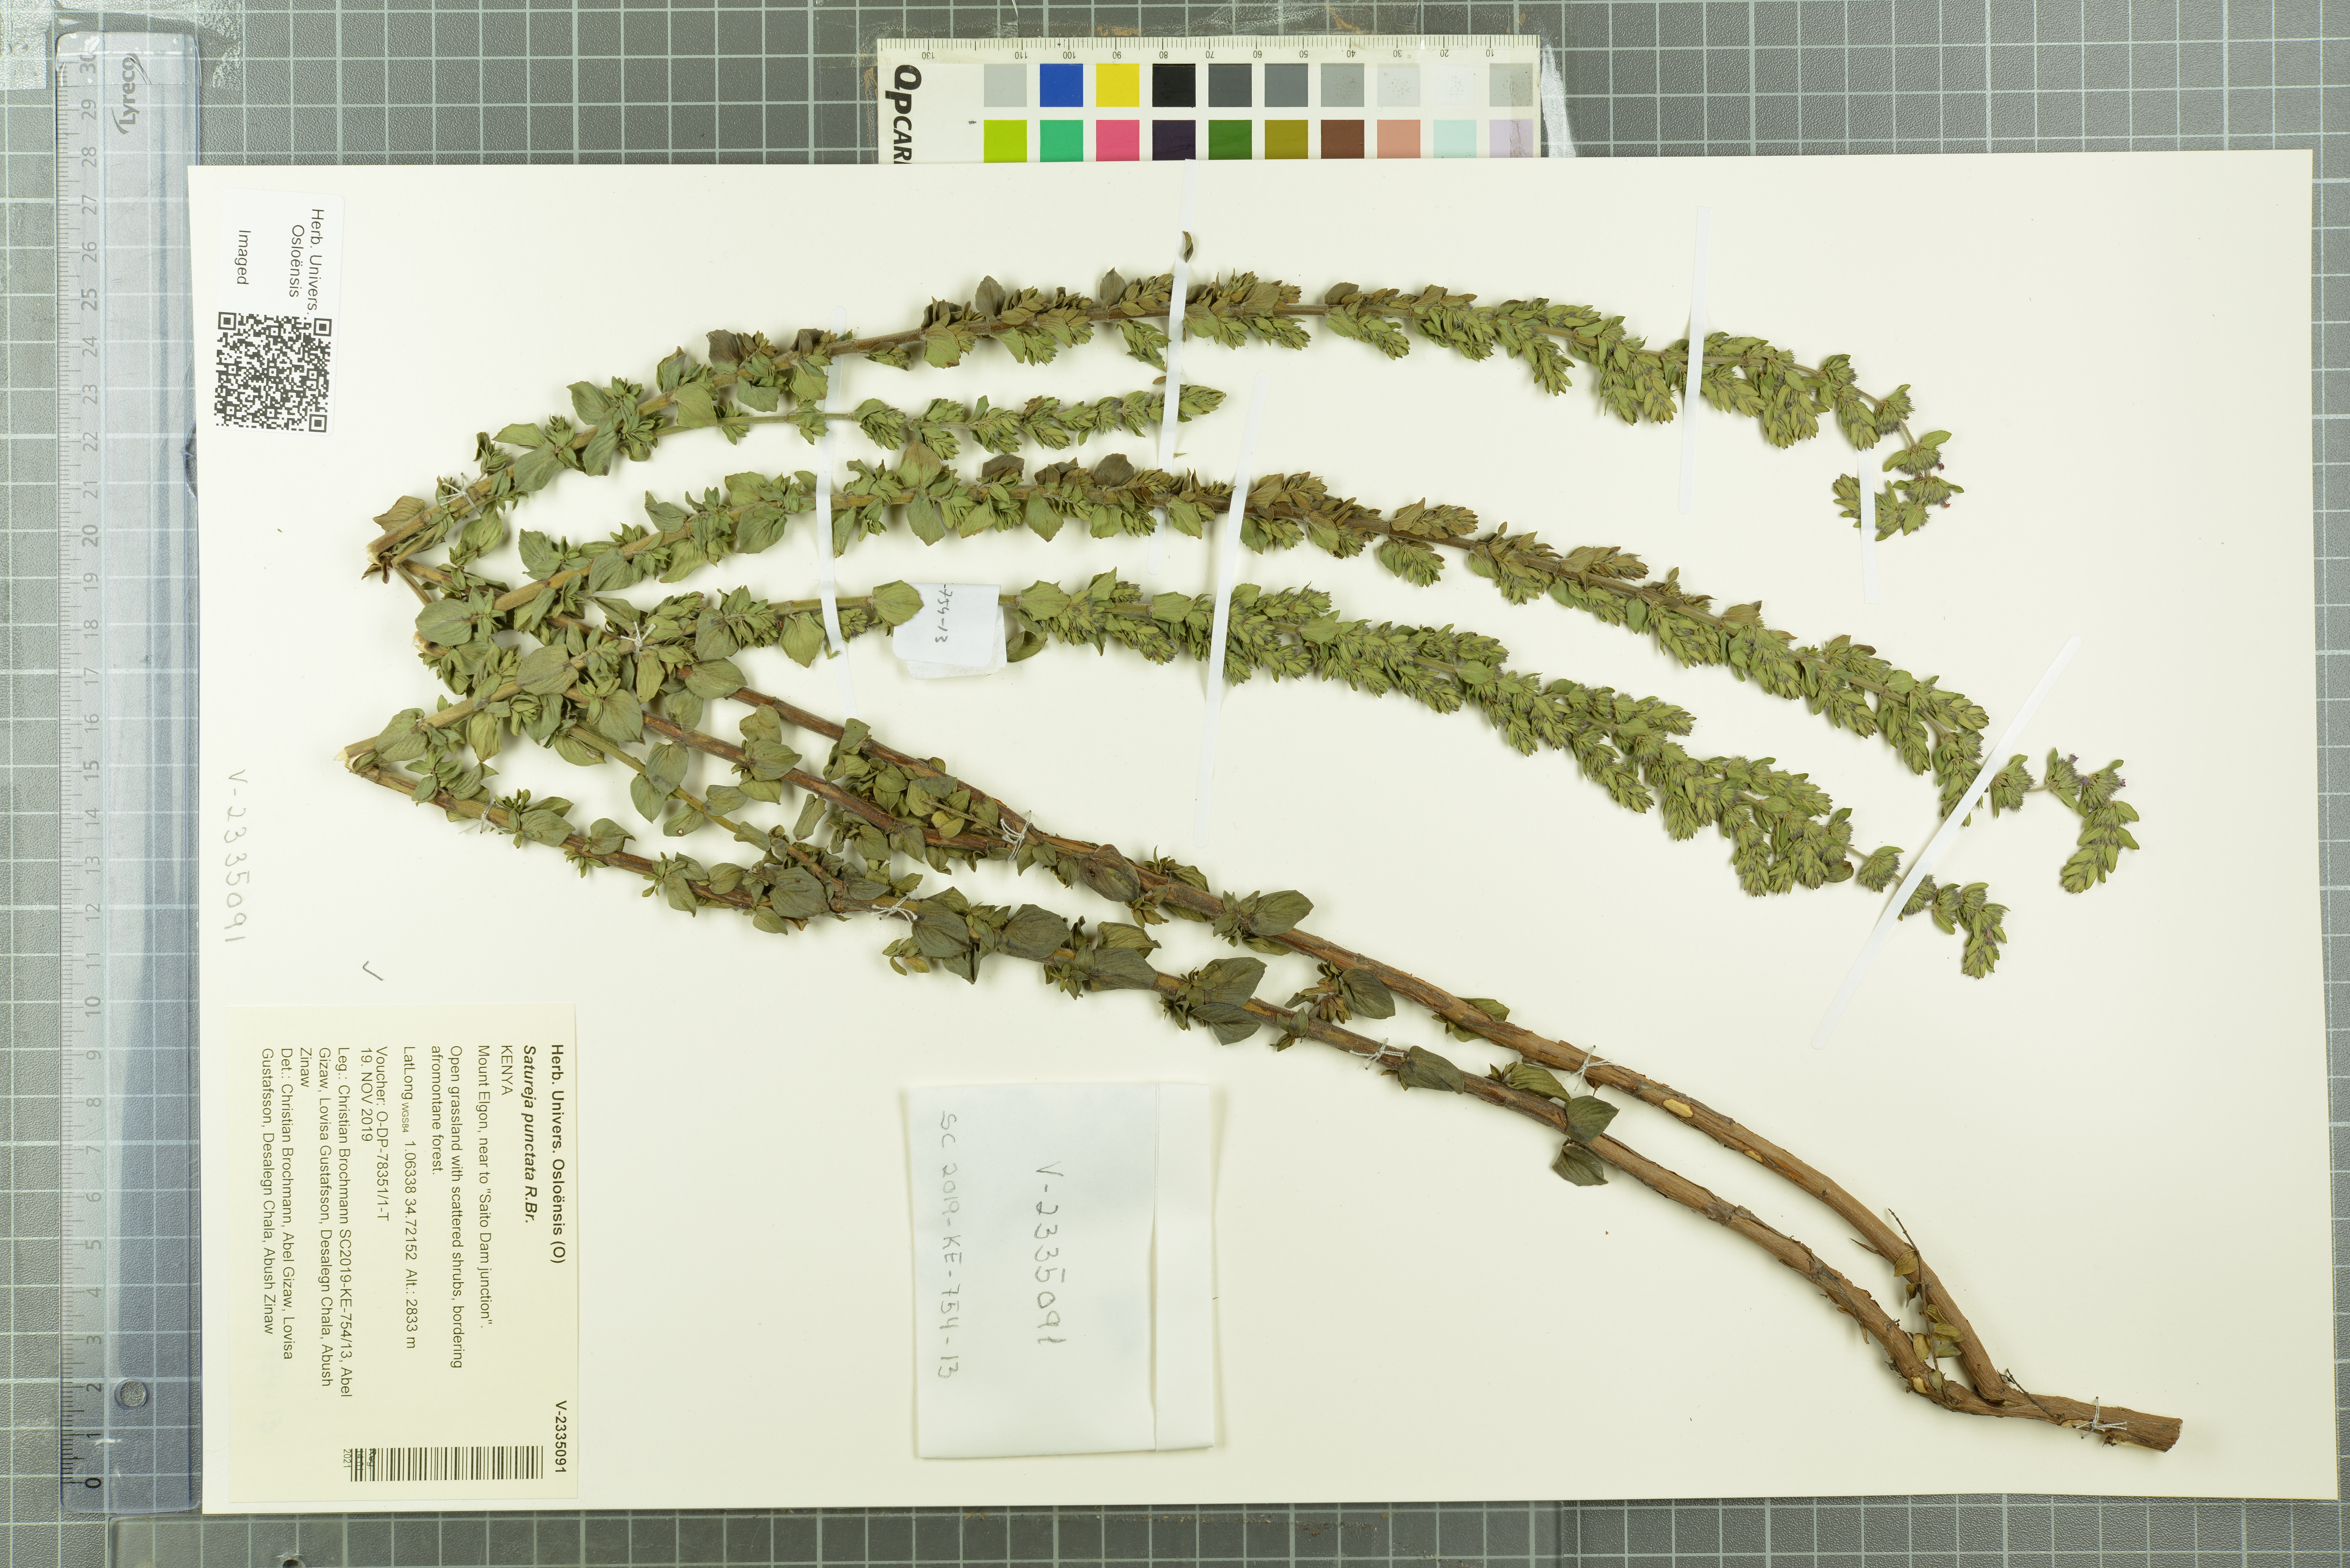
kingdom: Plantae
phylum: Tracheophyta
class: Magnoliopsida
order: Lamiales
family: Lamiaceae
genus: Micromeria
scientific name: Micromeria imbricata
